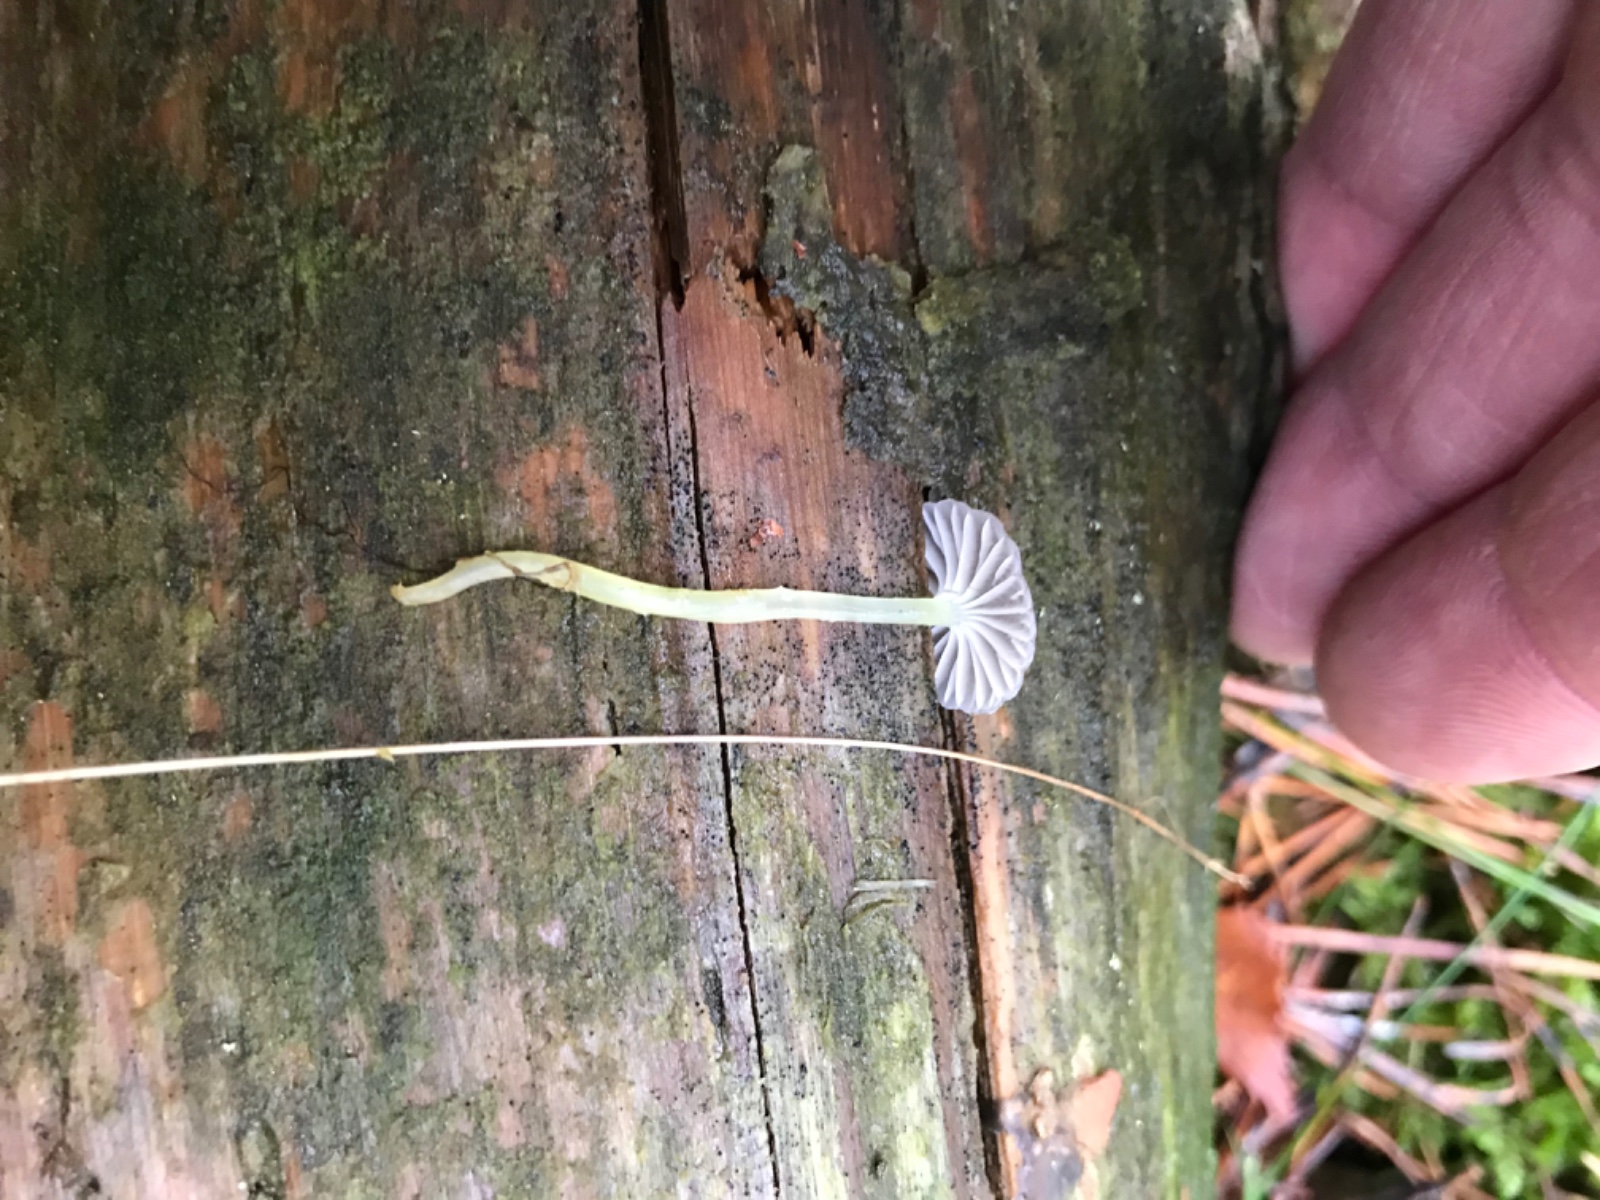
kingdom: Fungi
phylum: Basidiomycota
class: Agaricomycetes
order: Agaricales
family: Mycenaceae
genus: Mycena
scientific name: Mycena
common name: huesvamp
